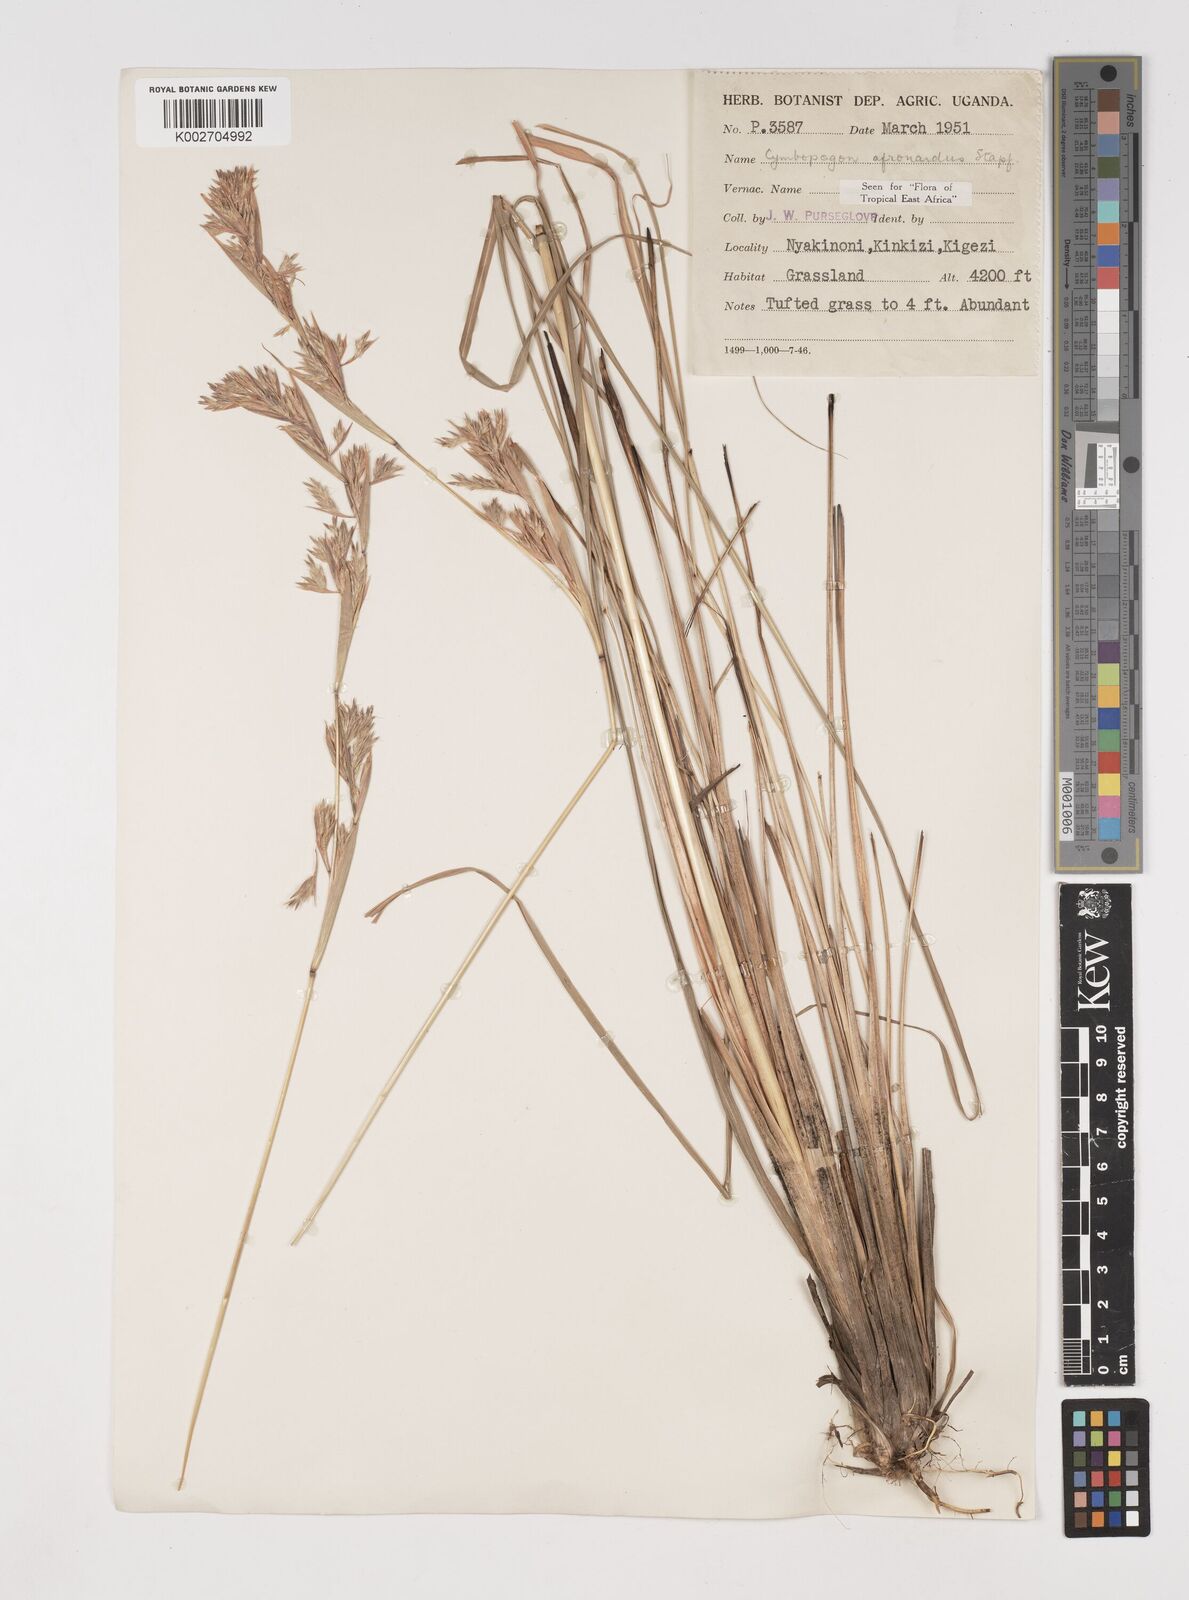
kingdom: Plantae
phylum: Tracheophyta
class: Liliopsida
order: Poales
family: Poaceae
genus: Cymbopogon
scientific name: Cymbopogon nardus
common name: Giant turpentine grass
